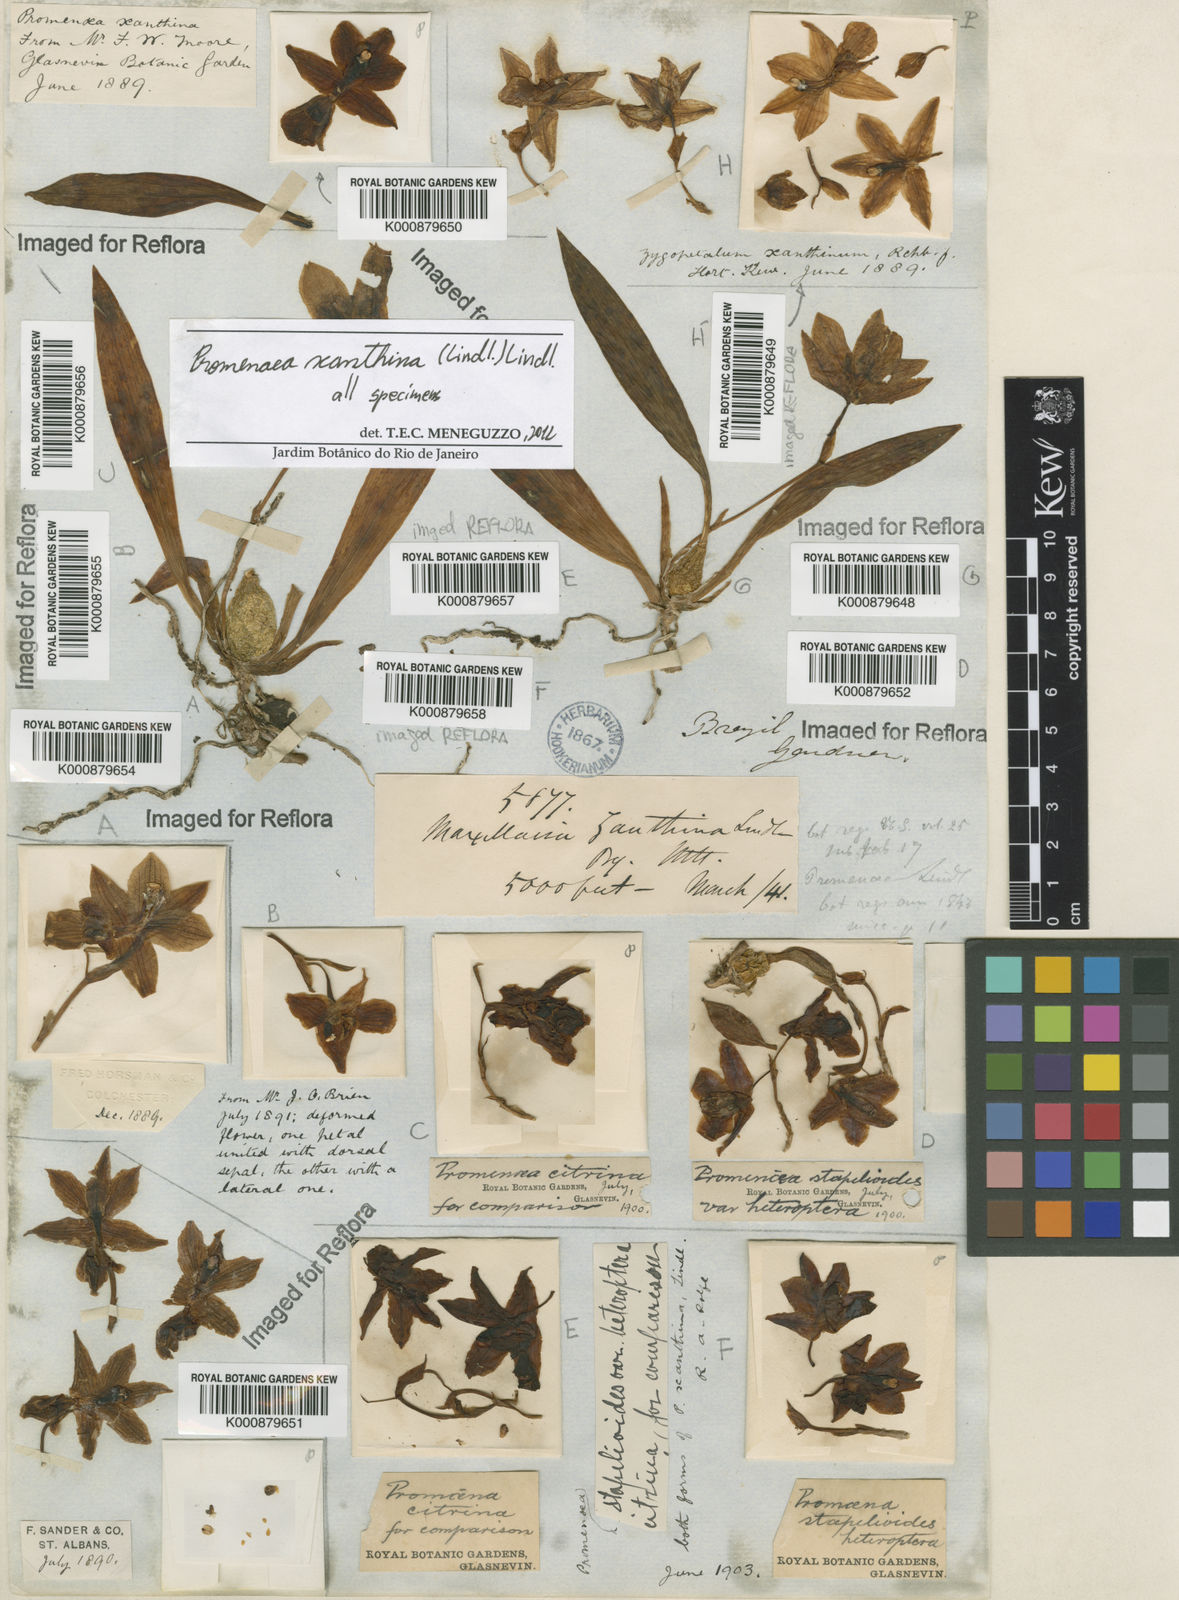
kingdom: Plantae
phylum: Tracheophyta
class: Liliopsida
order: Asparagales
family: Orchidaceae
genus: Promenaea
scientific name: Promenaea xanthina
